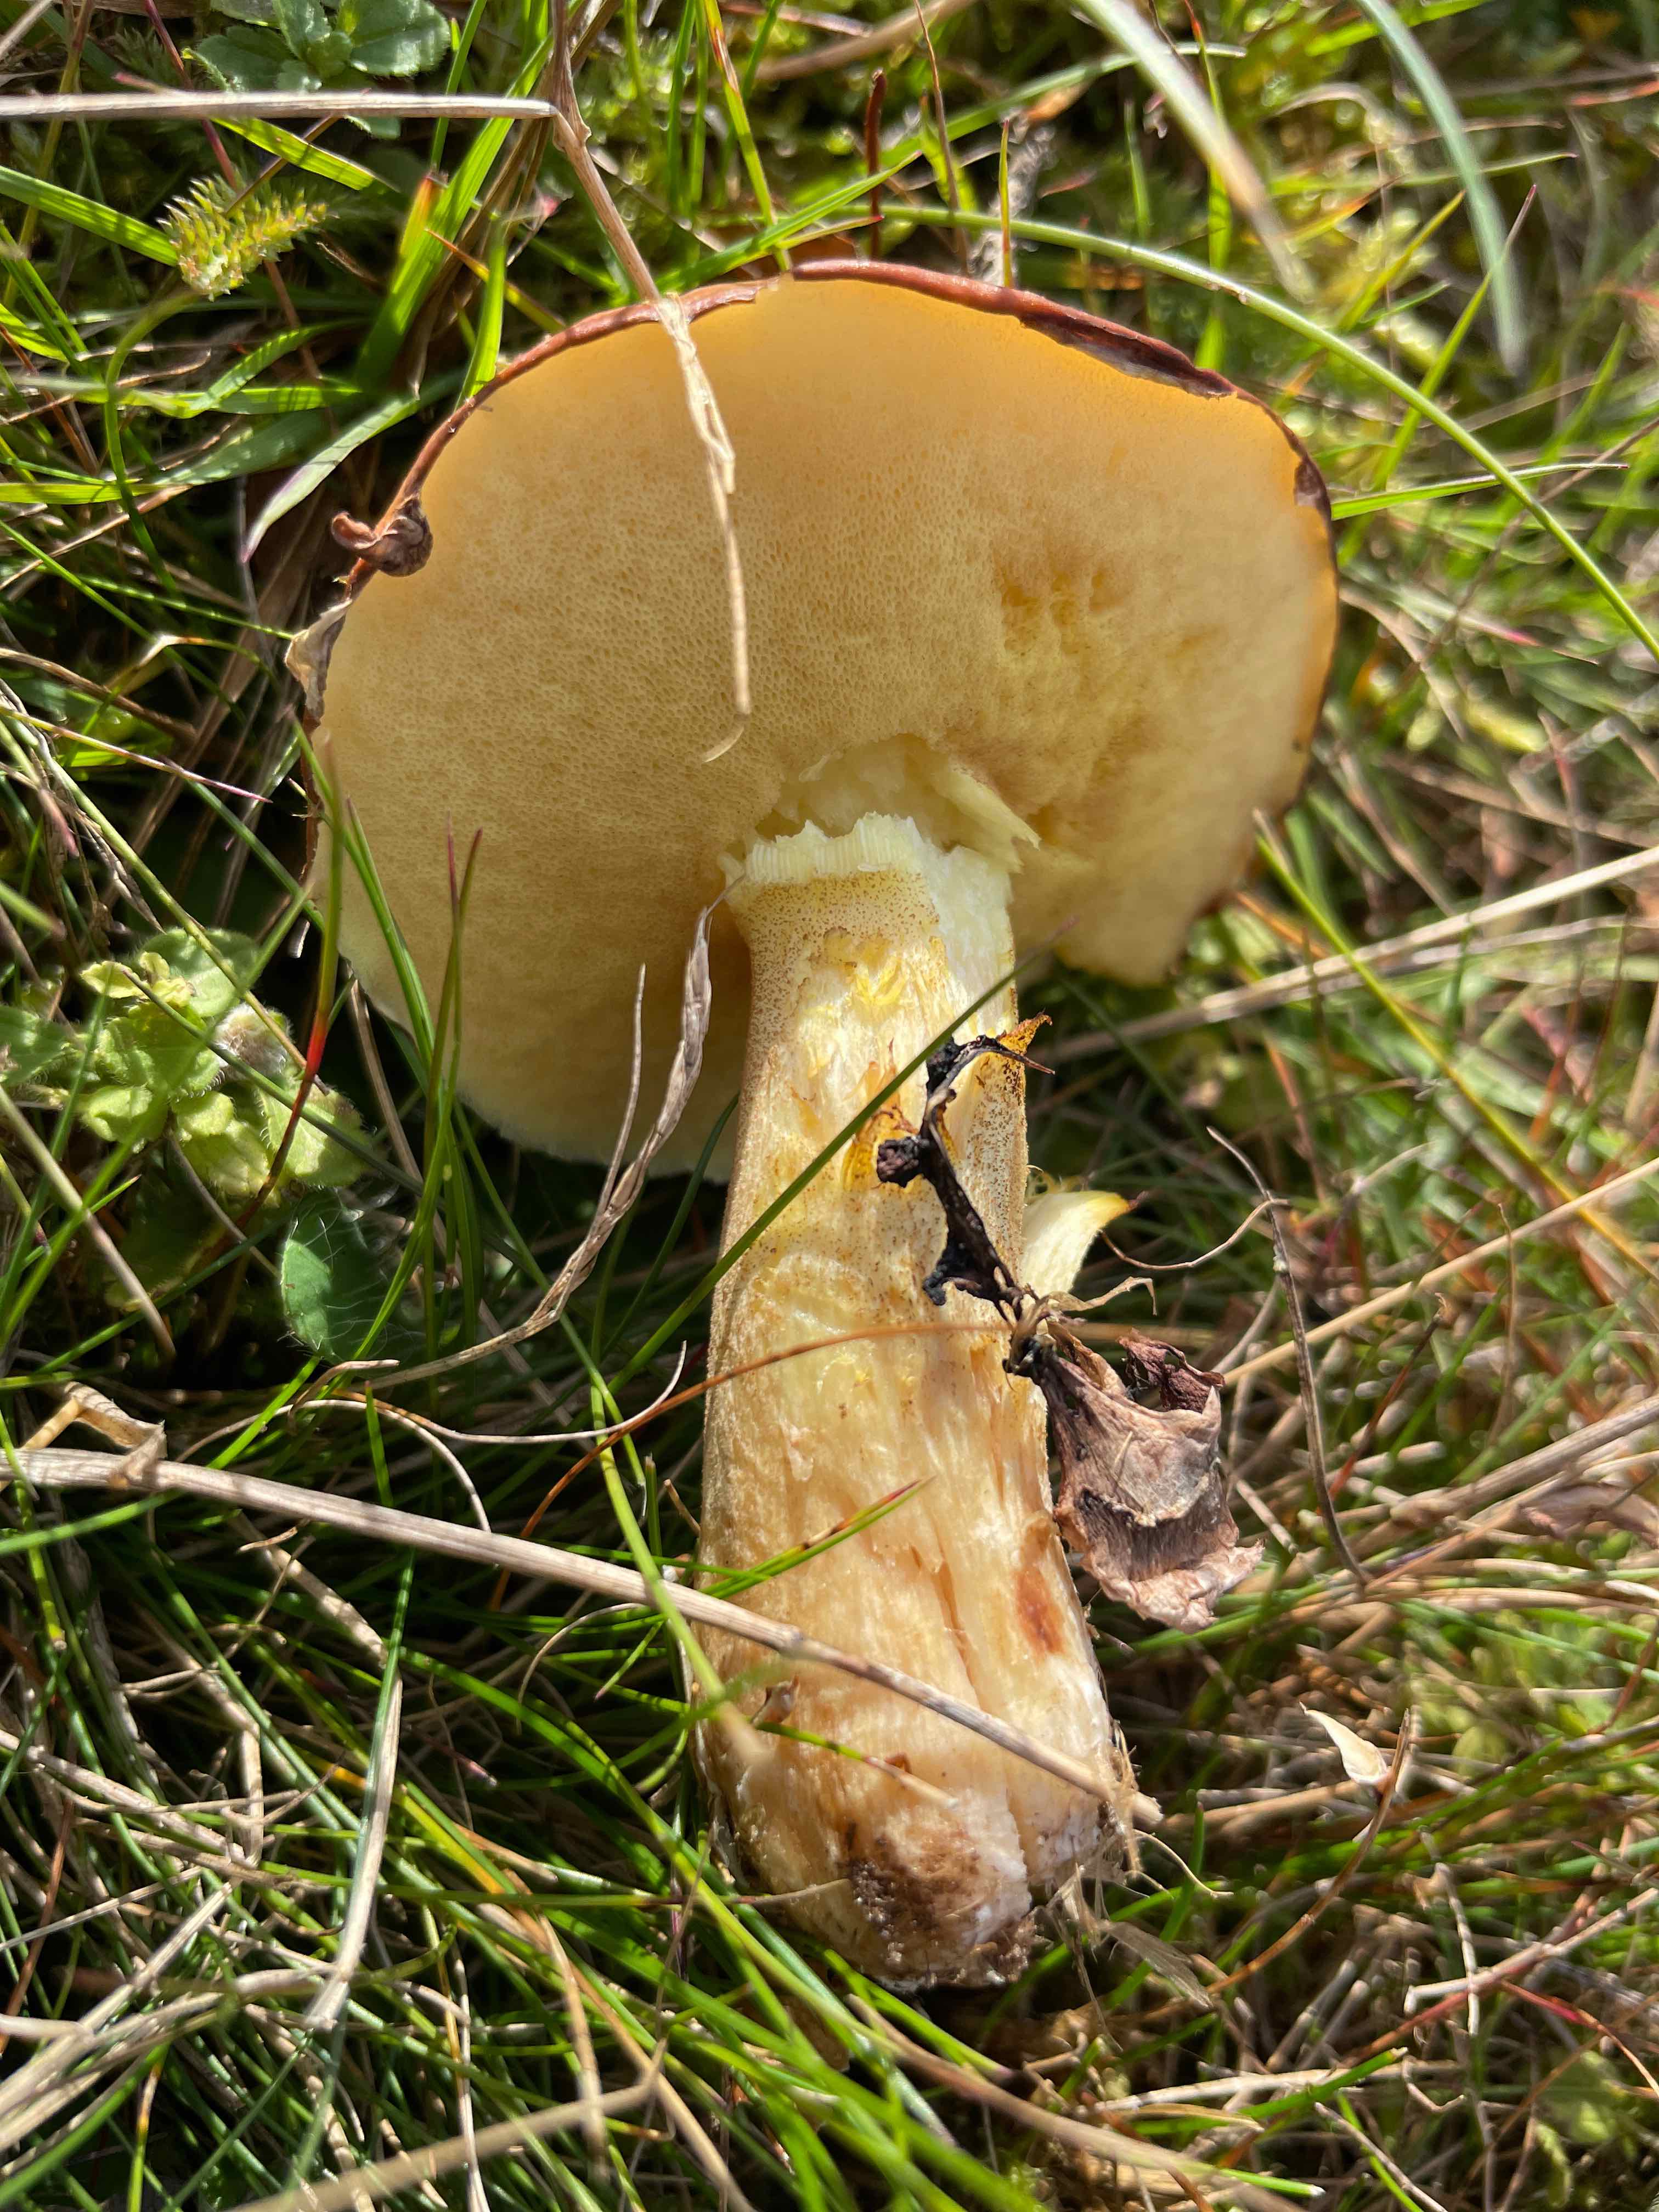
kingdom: Fungi
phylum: Basidiomycota
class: Agaricomycetes
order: Boletales
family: Suillaceae
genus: Suillus
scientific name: Suillus granulatus
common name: kornet slimrørhat
